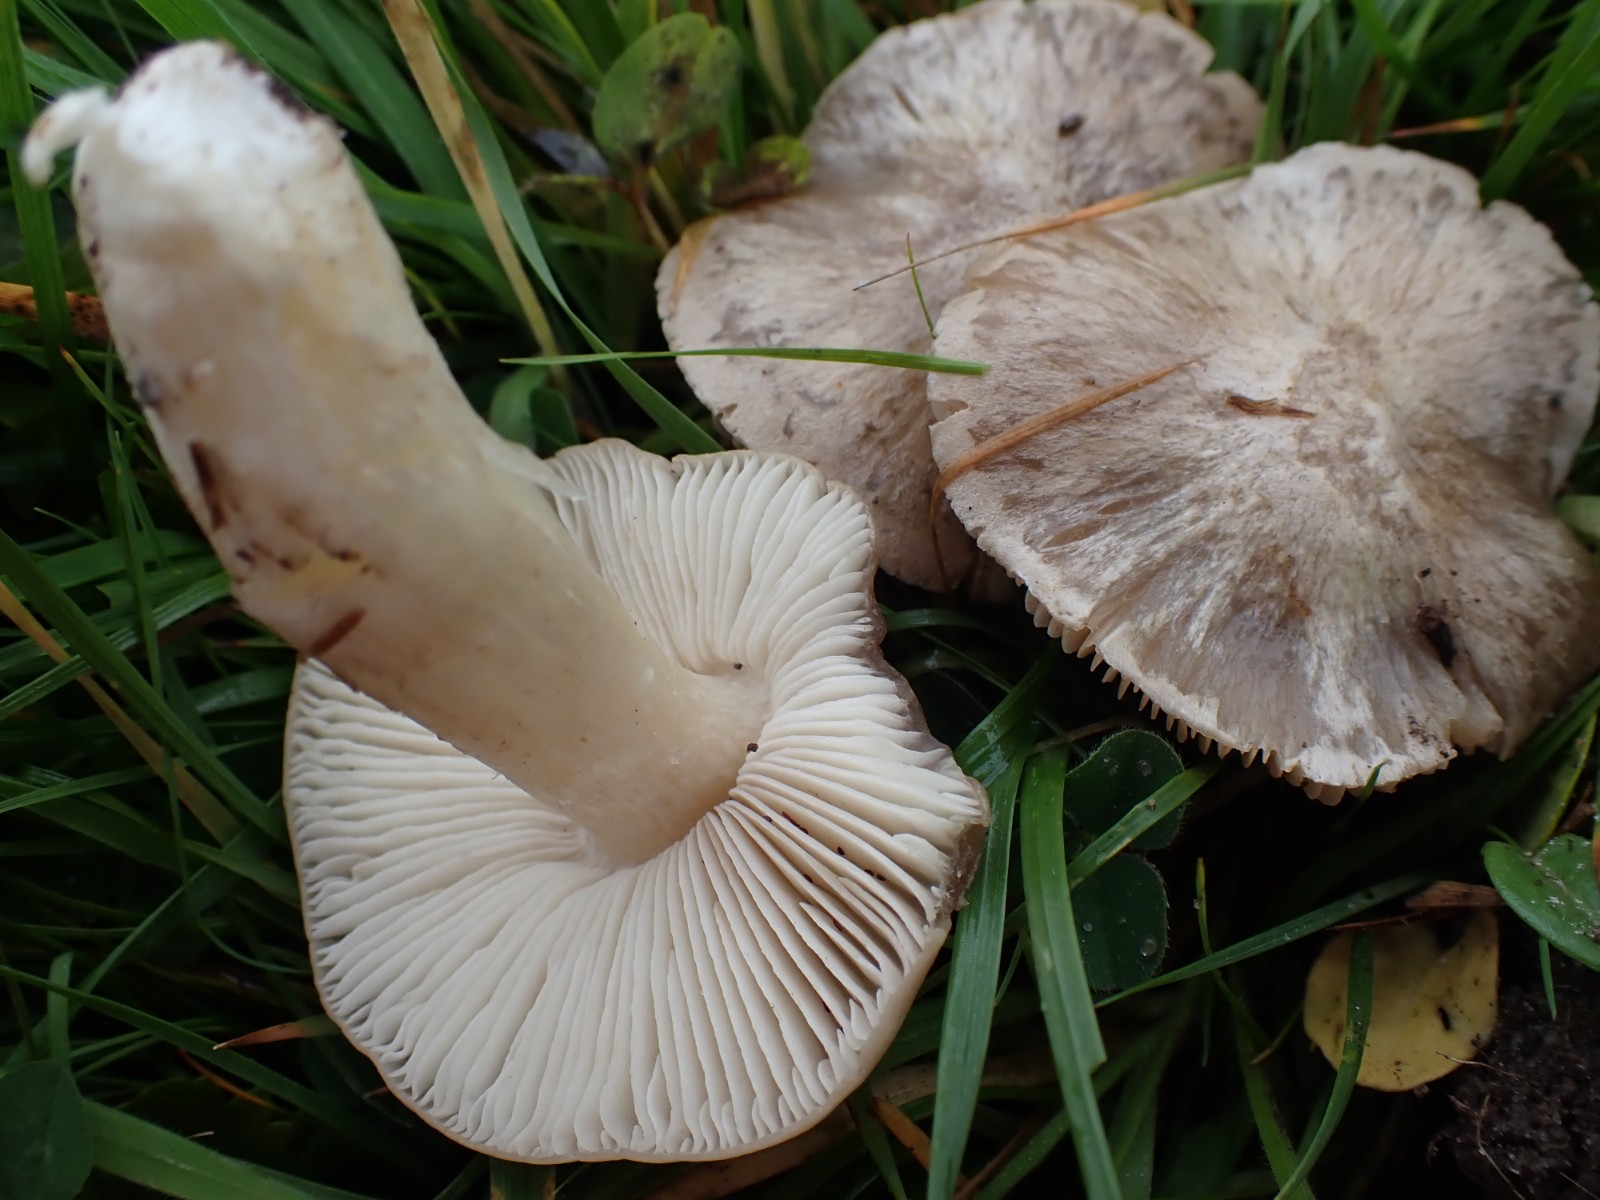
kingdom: Fungi
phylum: Basidiomycota
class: Agaricomycetes
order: Agaricales
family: Entolomataceae
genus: Entoloma
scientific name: Entoloma prunuloides
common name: mel-rødblad
